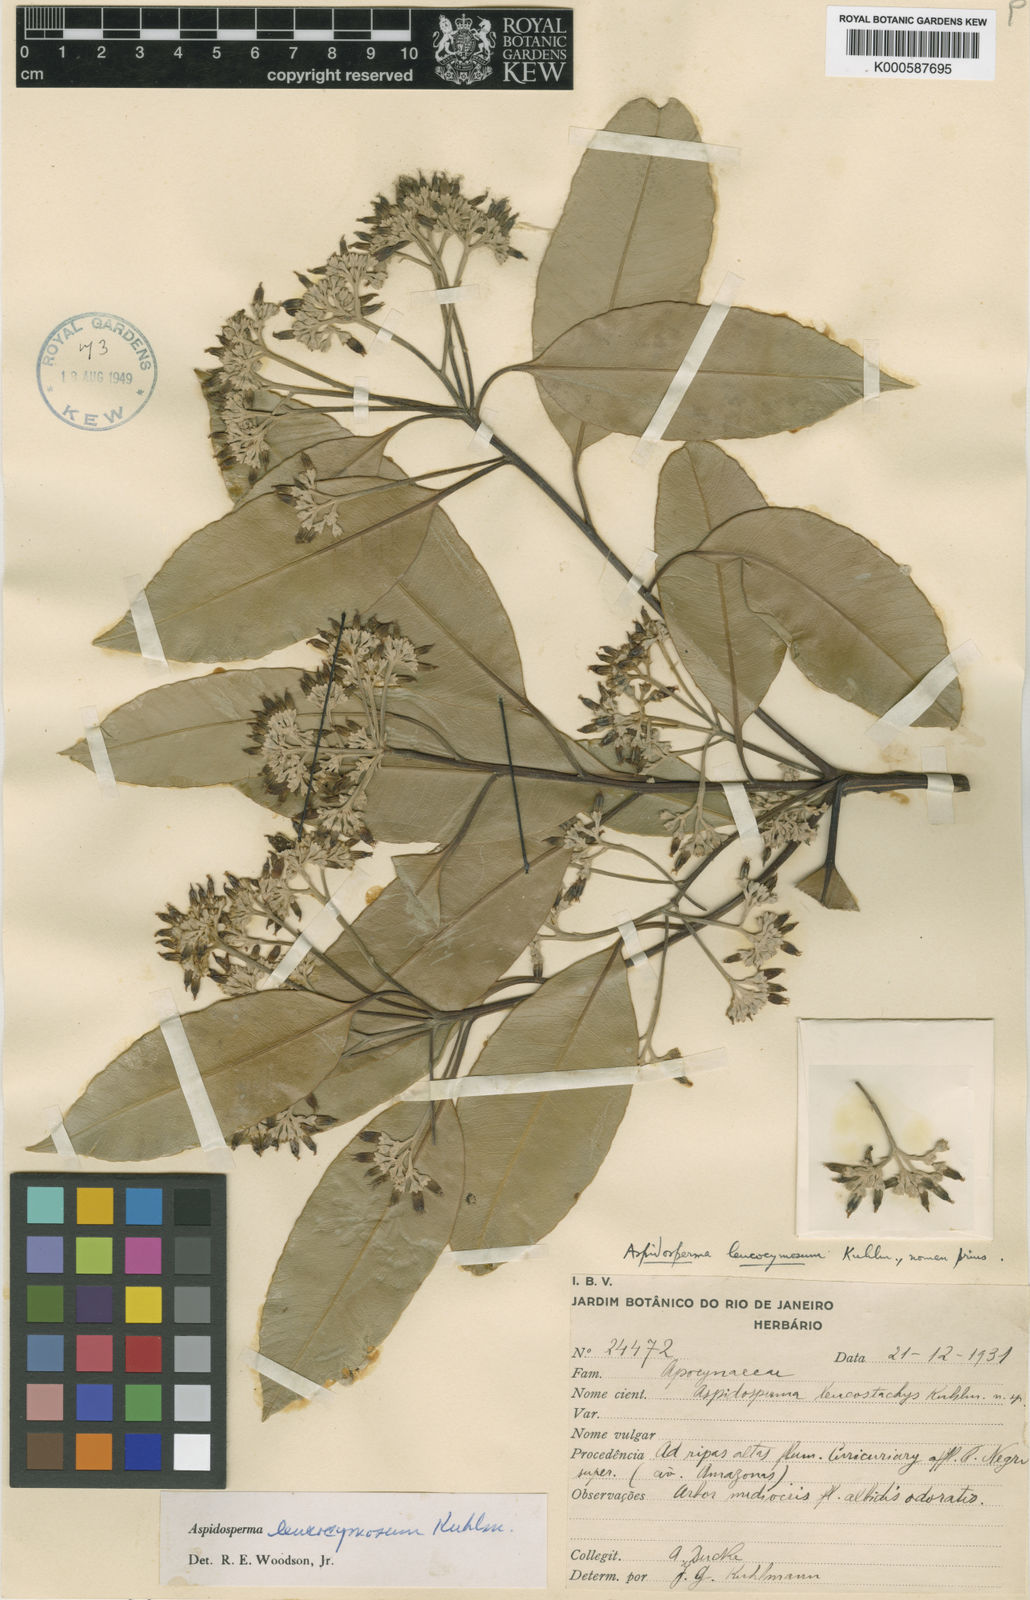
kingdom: Plantae
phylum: Tracheophyta
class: Magnoliopsida
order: Gentianales
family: Apocynaceae
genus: Aspidosperma
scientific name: Aspidosperma leucocymosum
